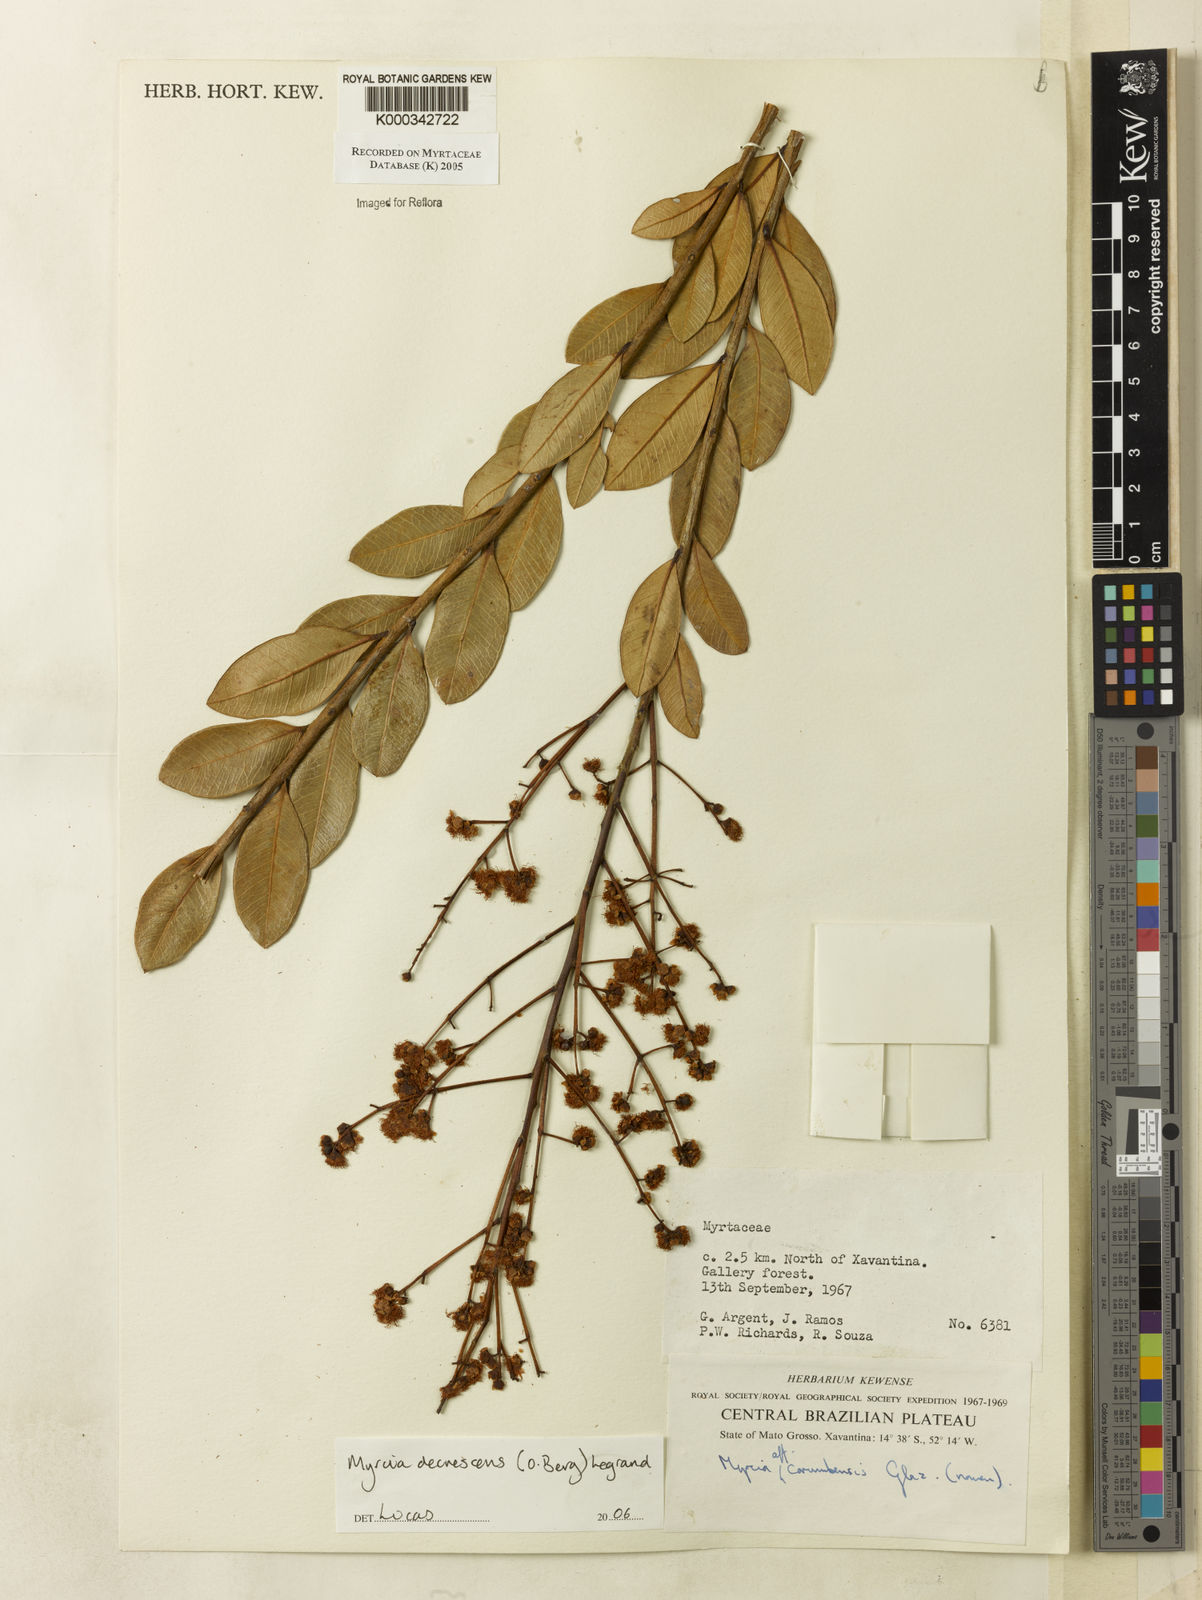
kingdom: Plantae
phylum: Tracheophyta
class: Magnoliopsida
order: Myrtales
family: Myrtaceae
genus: Myrcia
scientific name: Myrcia
